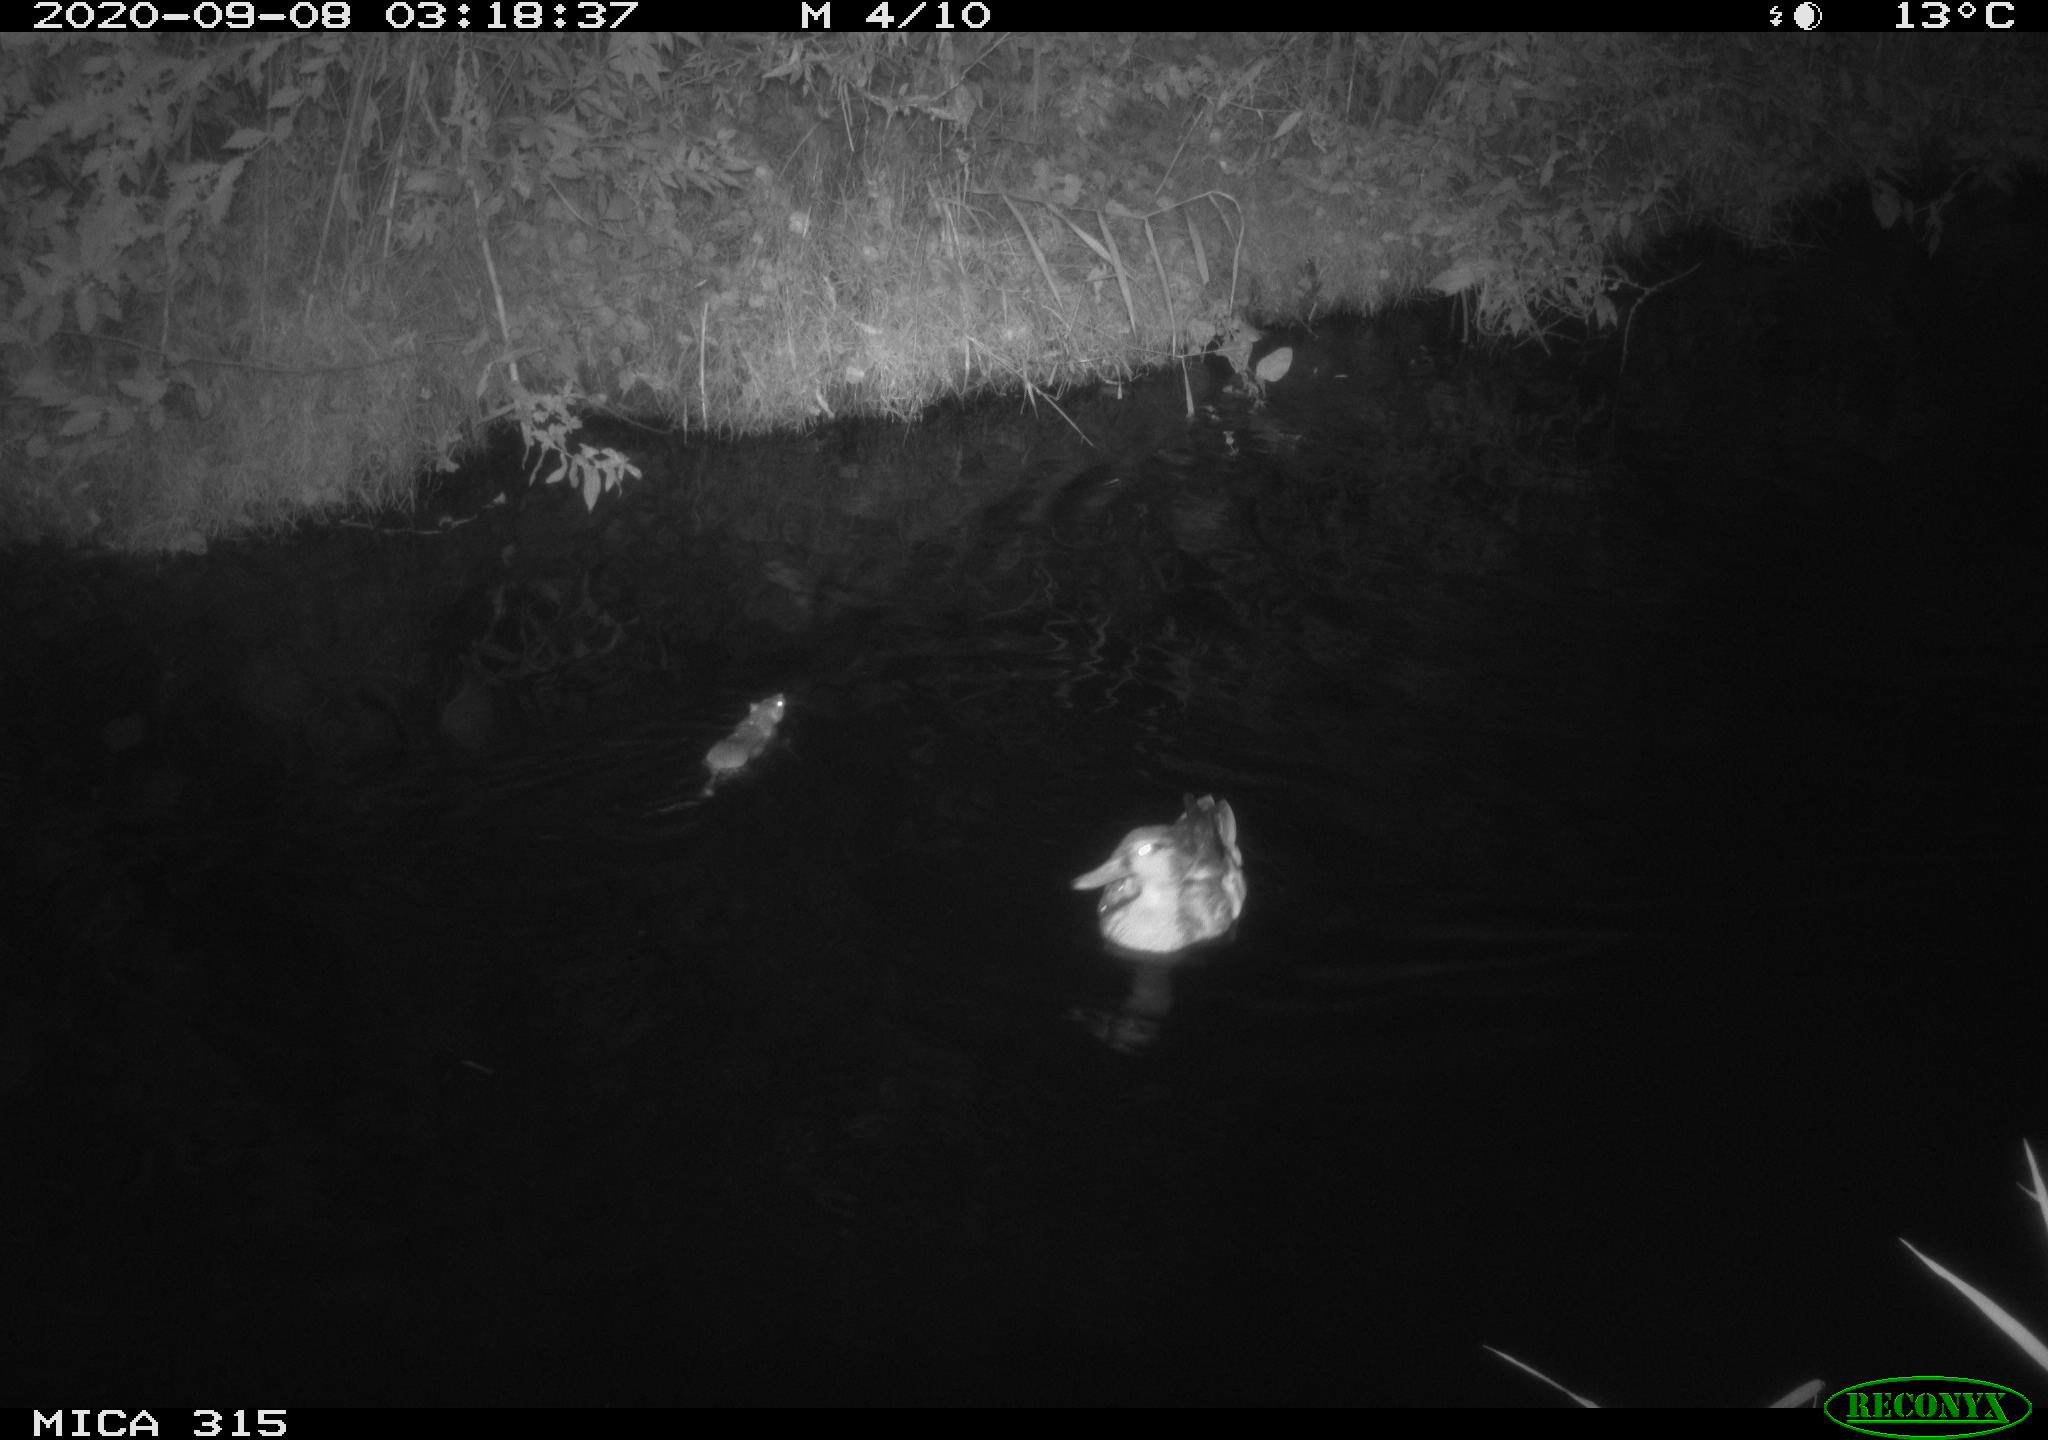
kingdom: Animalia
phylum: Chordata
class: Mammalia
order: Rodentia
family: Muridae
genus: Rattus
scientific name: Rattus norvegicus
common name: Brown rat
